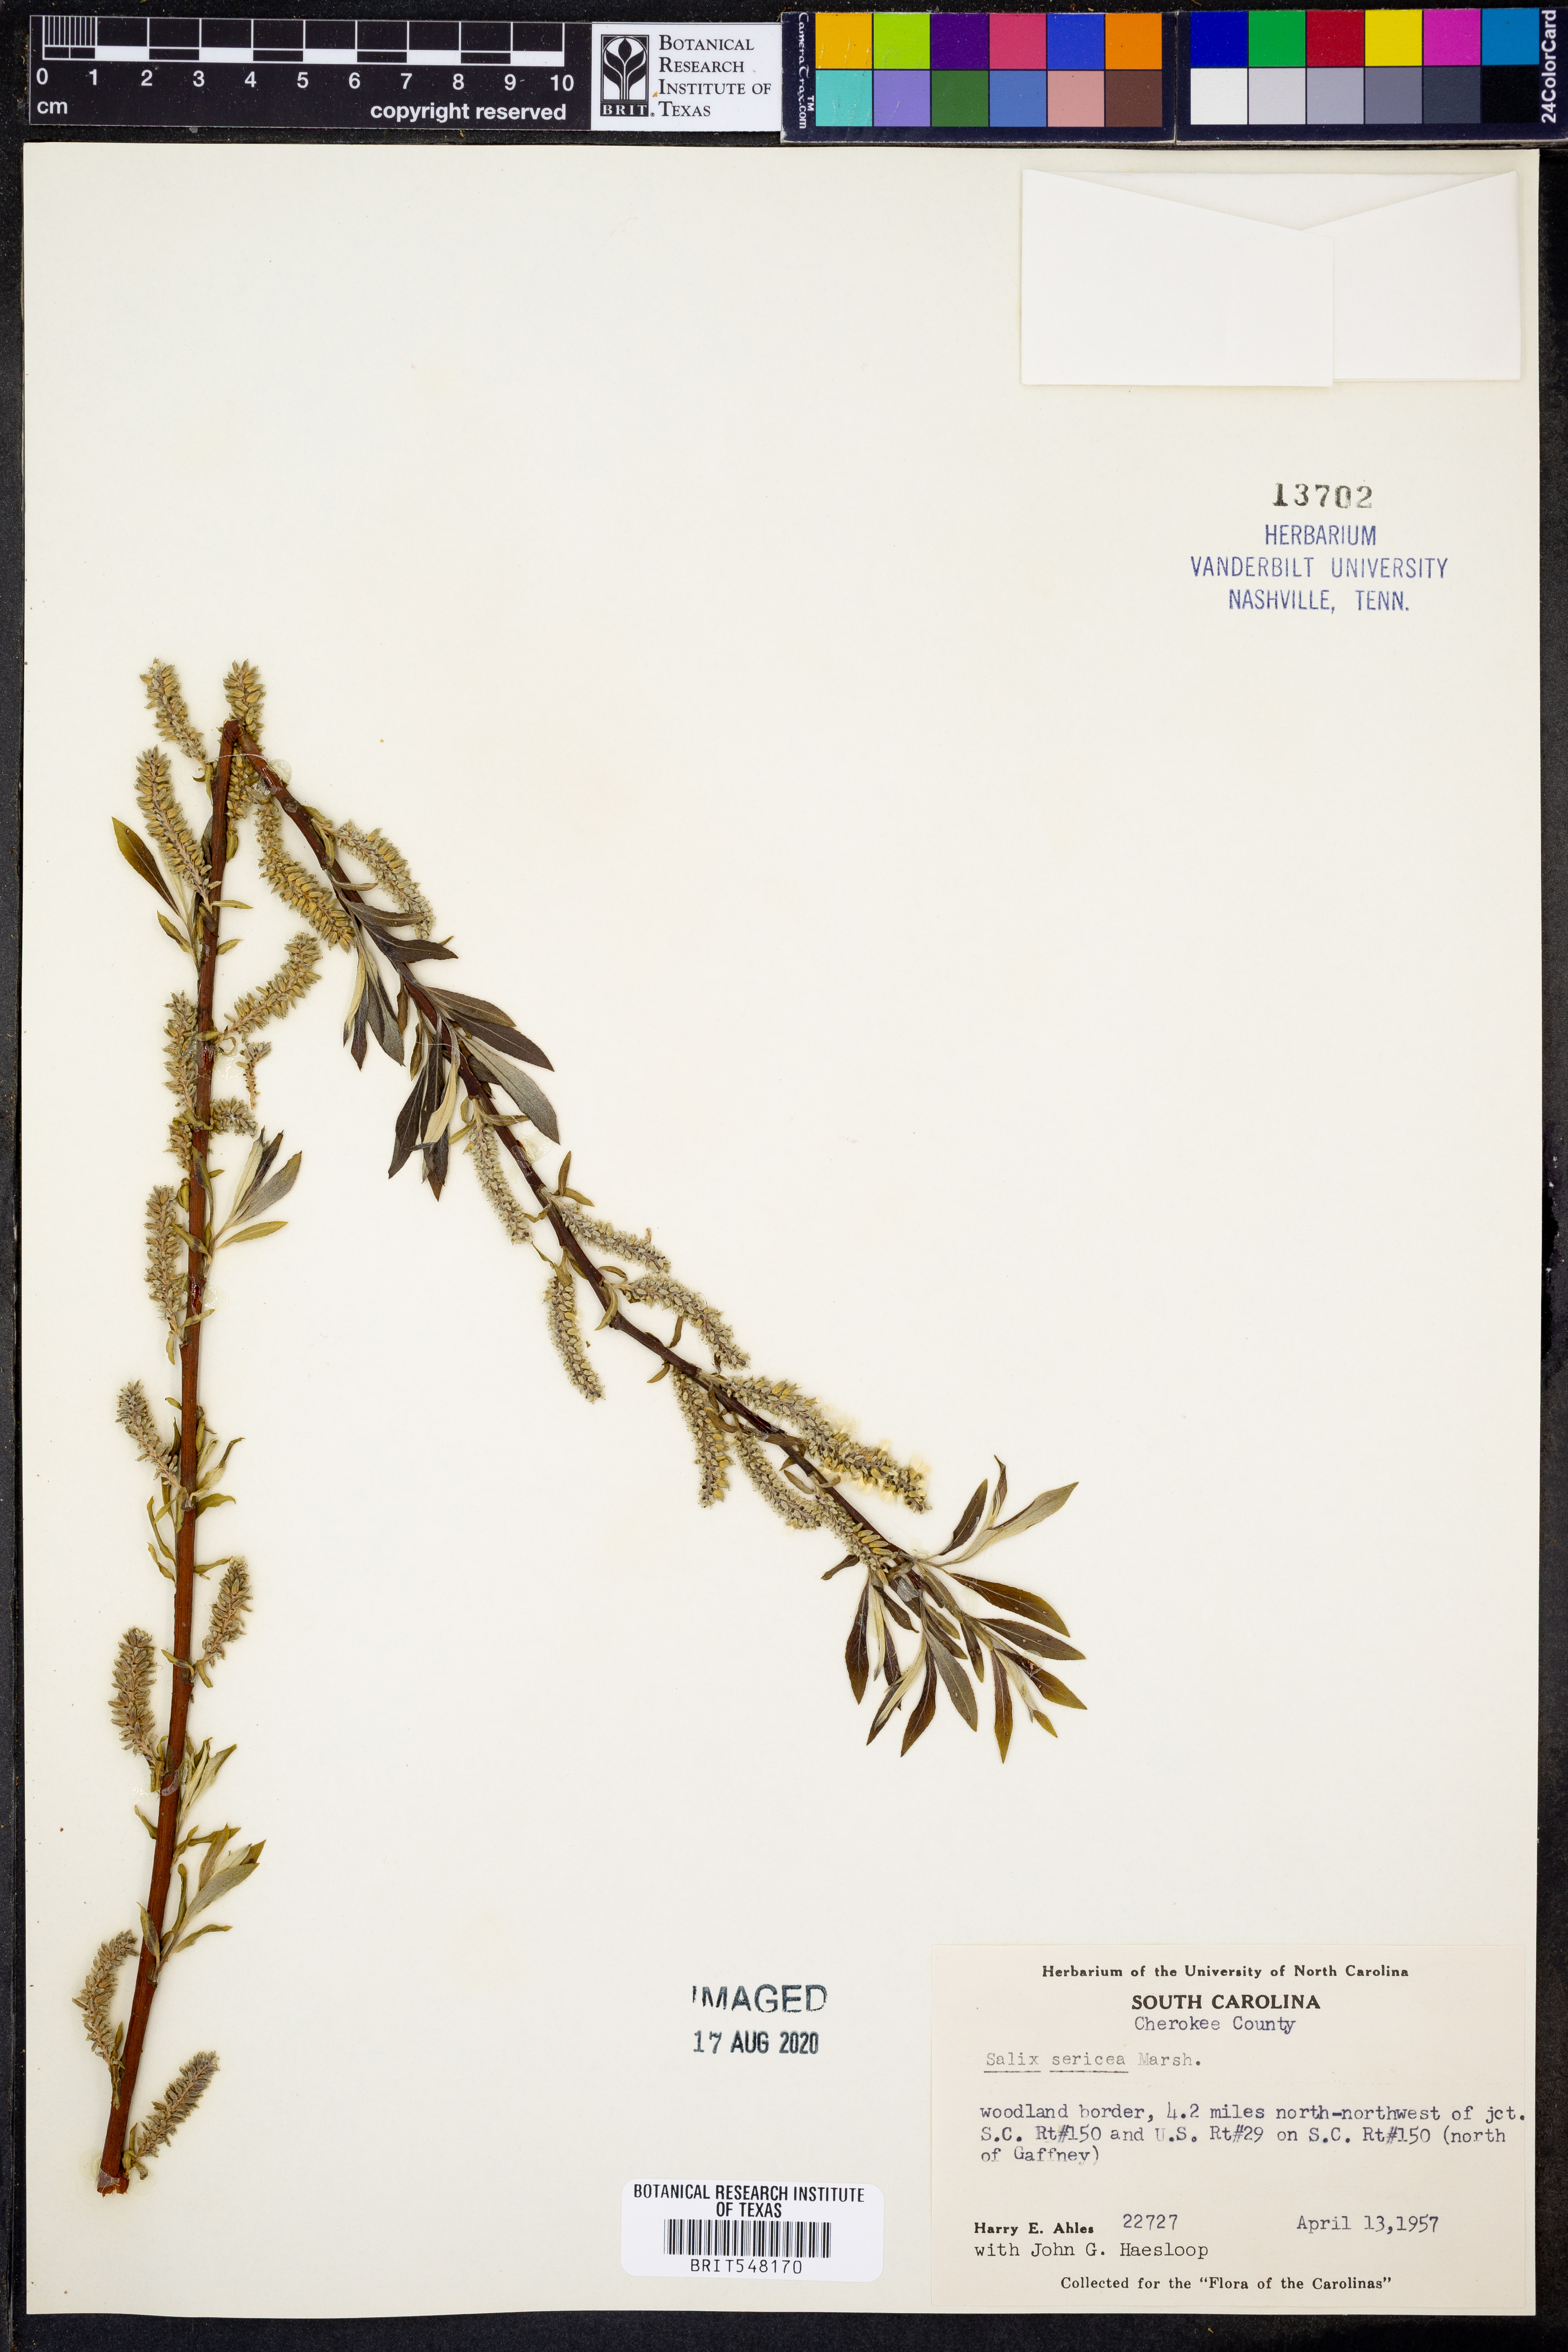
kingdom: Plantae
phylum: Tracheophyta
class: Magnoliopsida
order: Malpighiales
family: Salicaceae
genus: Salix
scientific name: Salix sericea
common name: Silky willow
